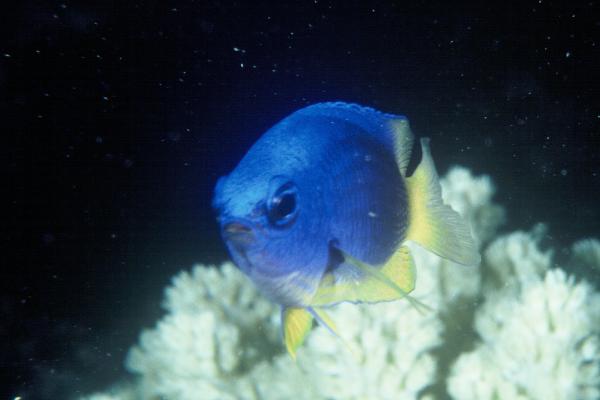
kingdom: Animalia
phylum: Chordata
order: Perciformes
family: Pomacentridae
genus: Pomacentrus
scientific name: Pomacentrus caeruleus
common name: Caerulean damsel
